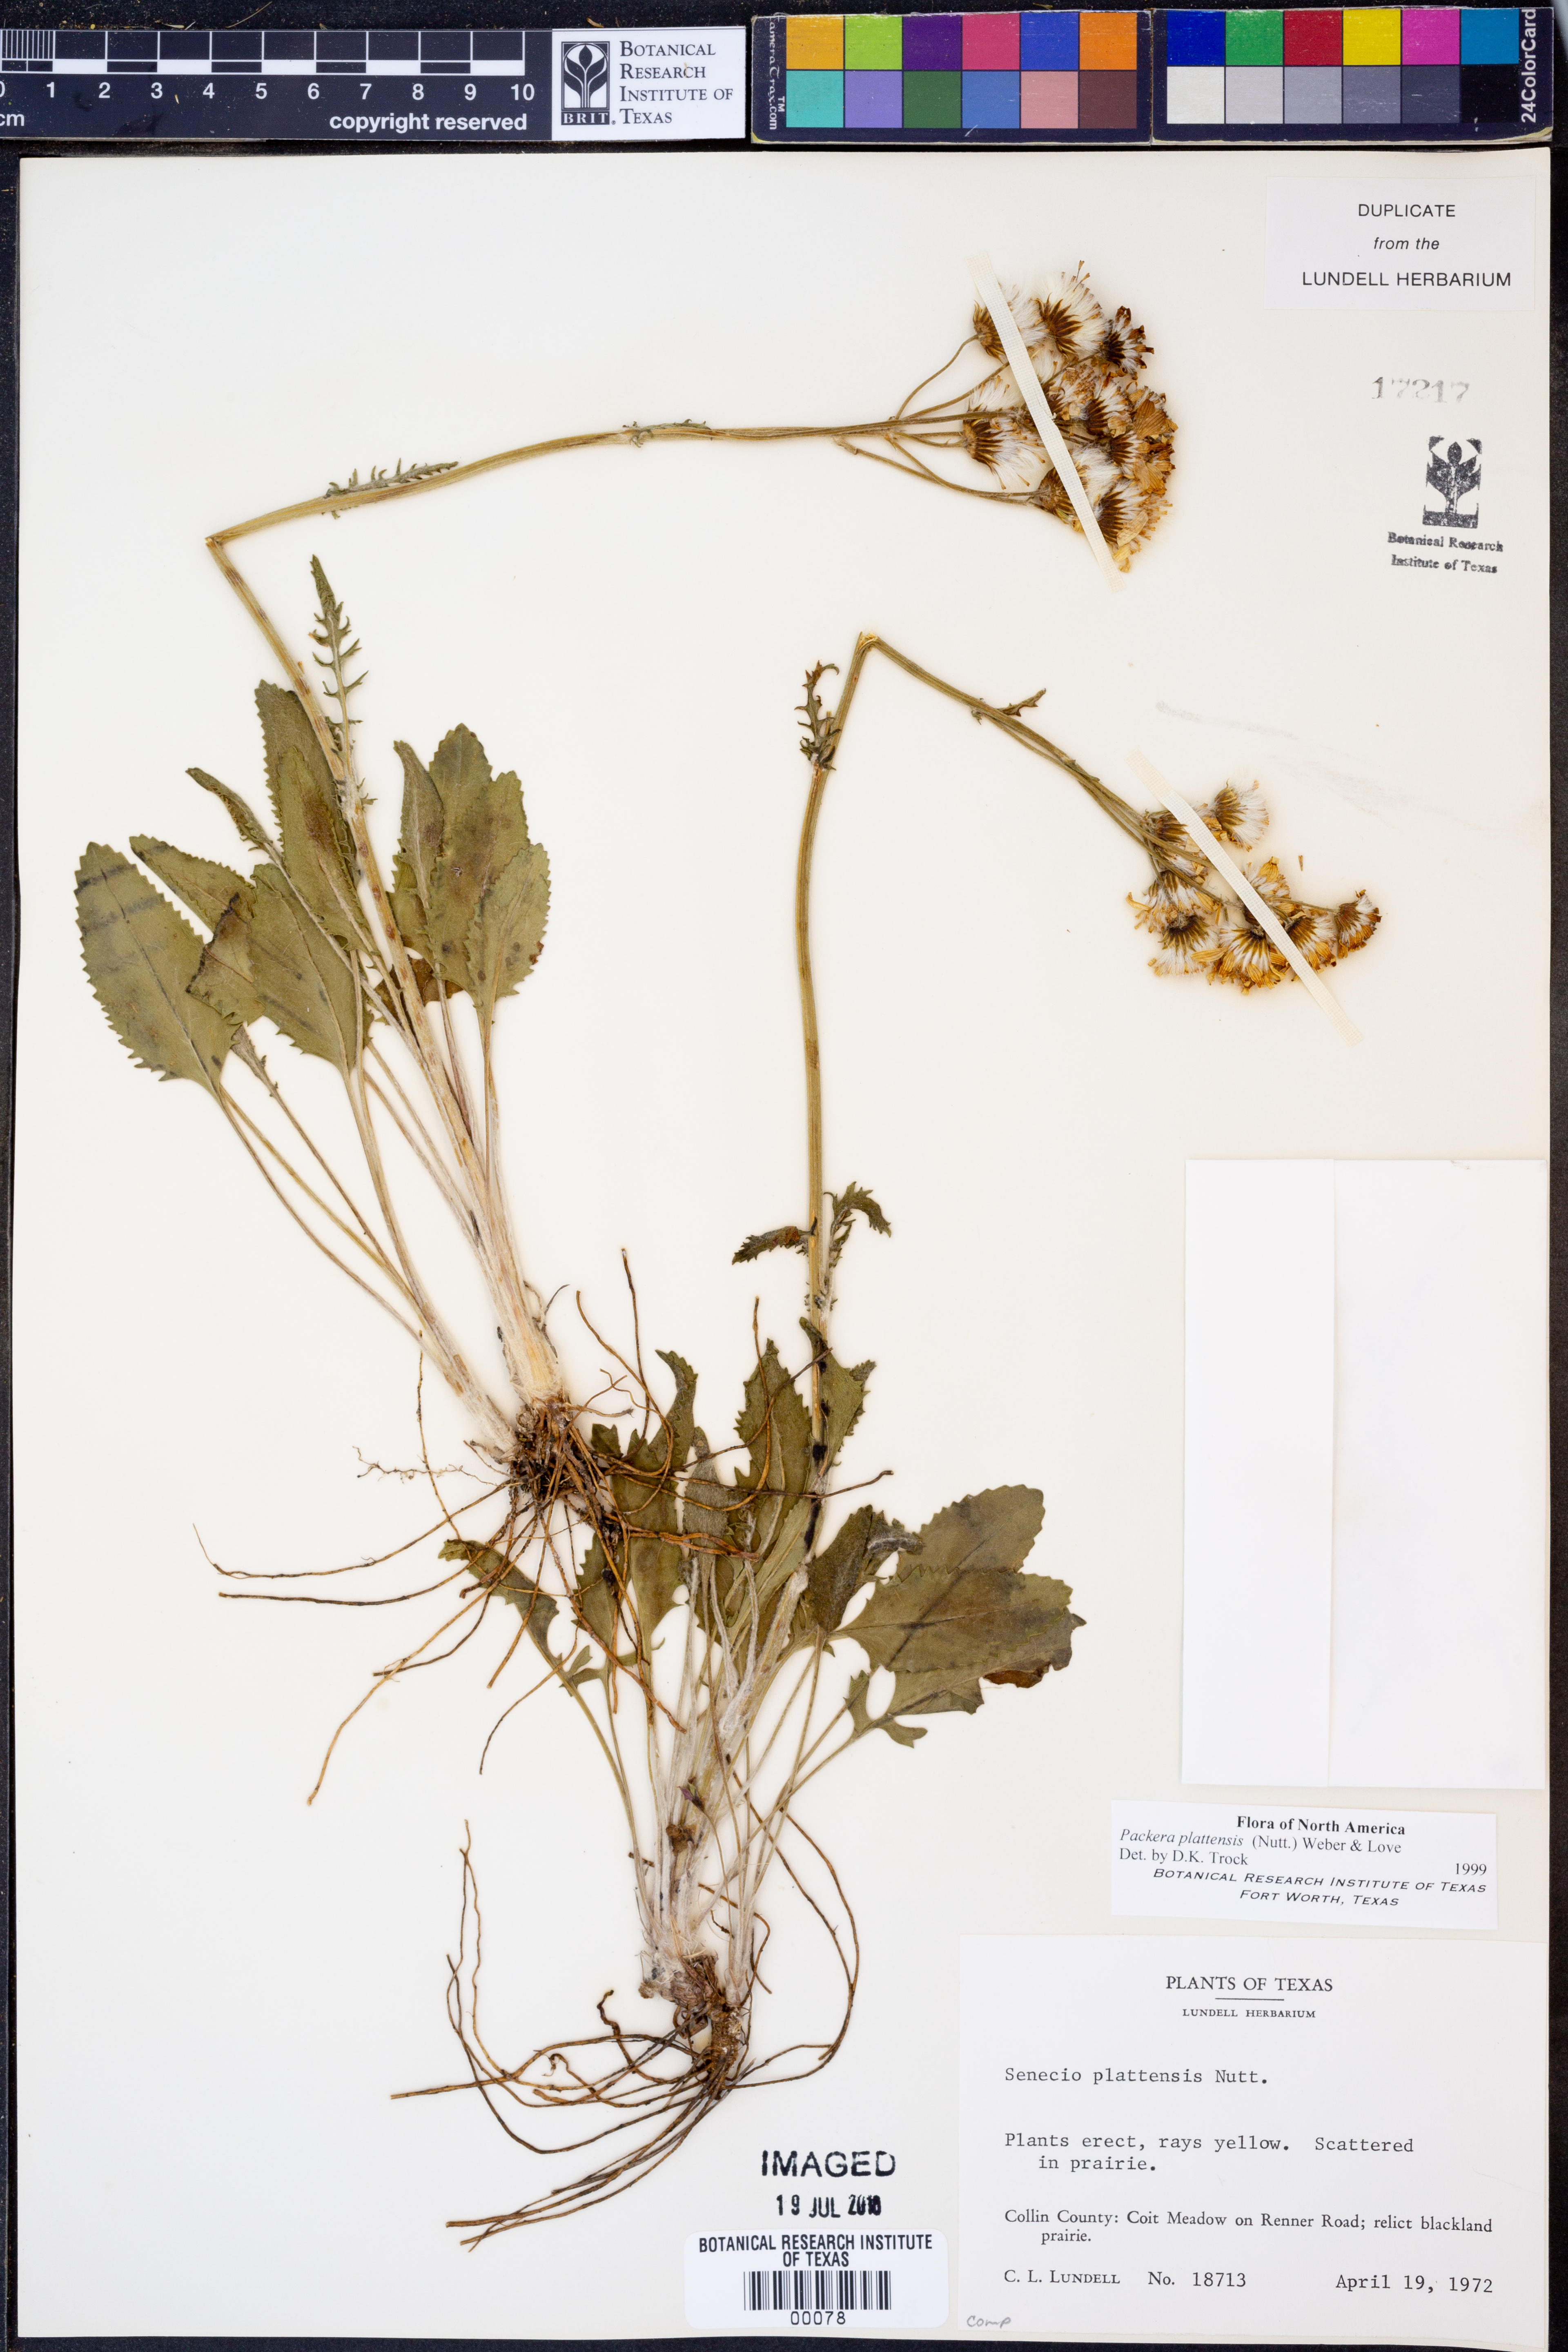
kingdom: Plantae
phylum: Tracheophyta
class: Magnoliopsida
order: Asterales
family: Asteraceae
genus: Packera
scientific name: Packera plattensis
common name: Prairie groundsel
